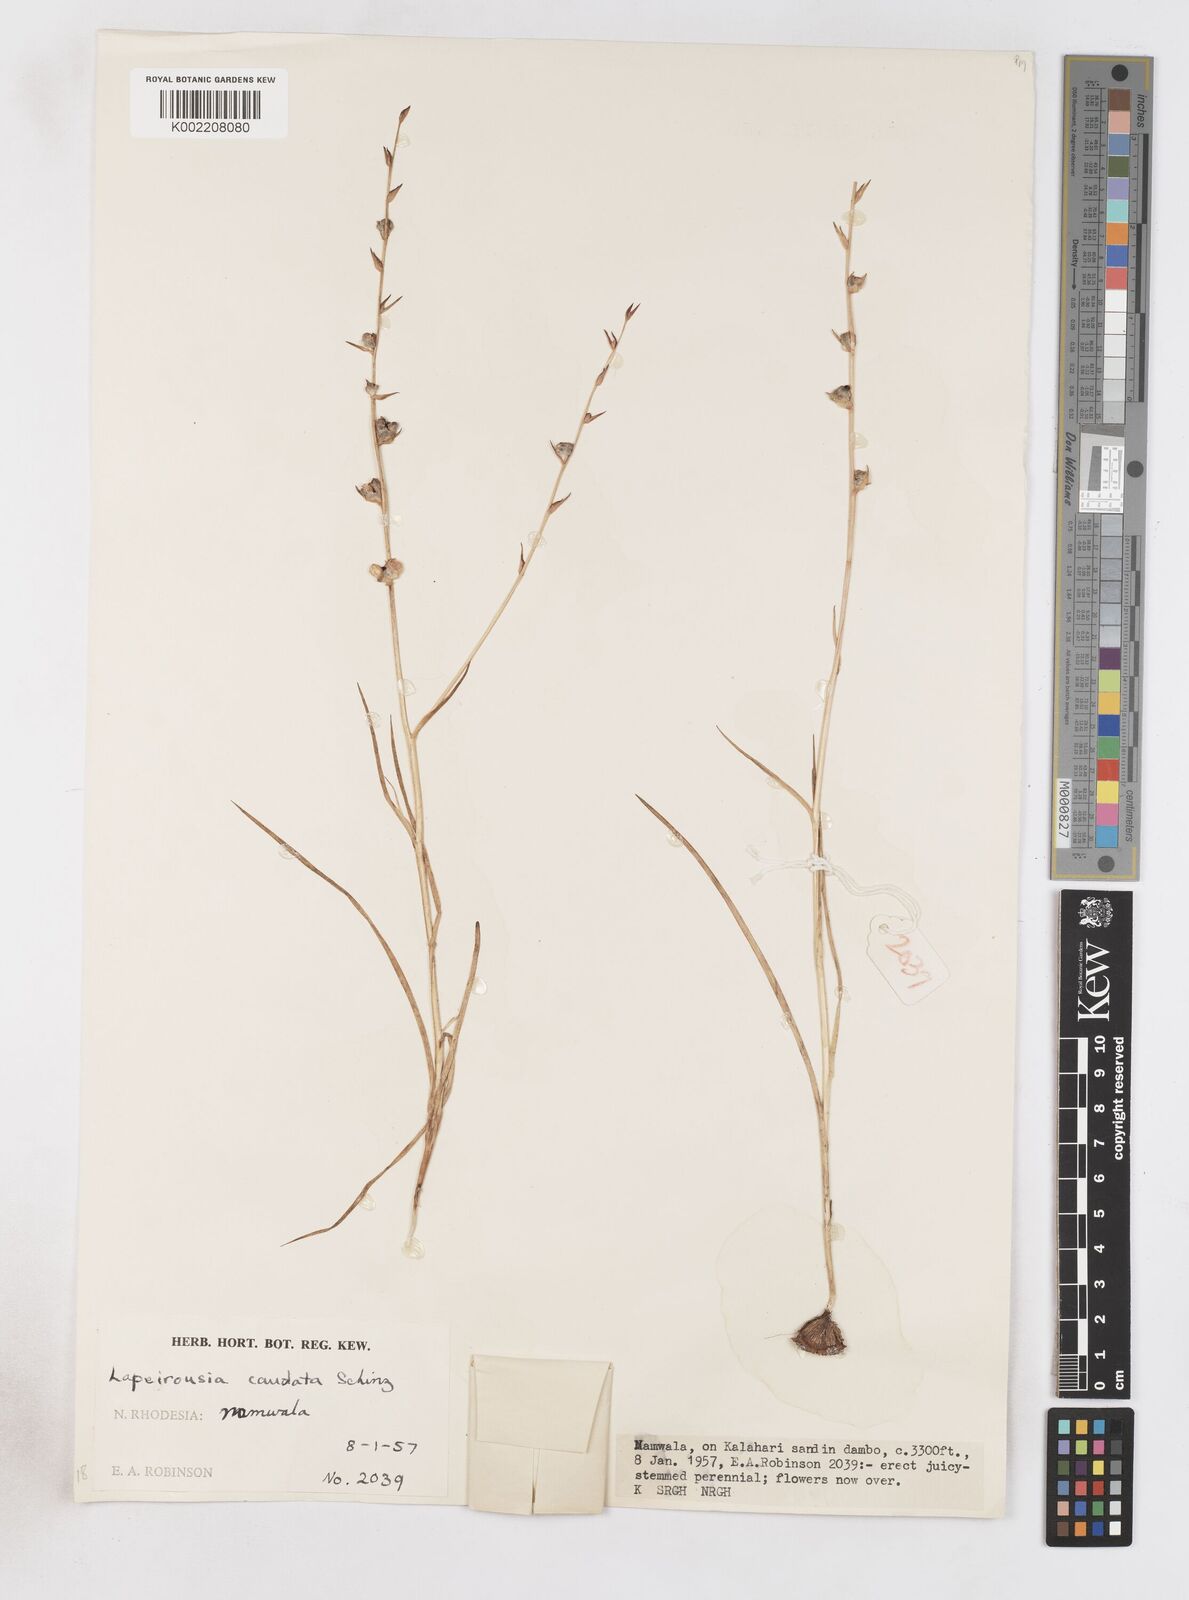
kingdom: Plantae
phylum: Tracheophyta
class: Liliopsida
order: Asparagales
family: Iridaceae
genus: Lapeirousia
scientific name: Lapeirousia caudata
